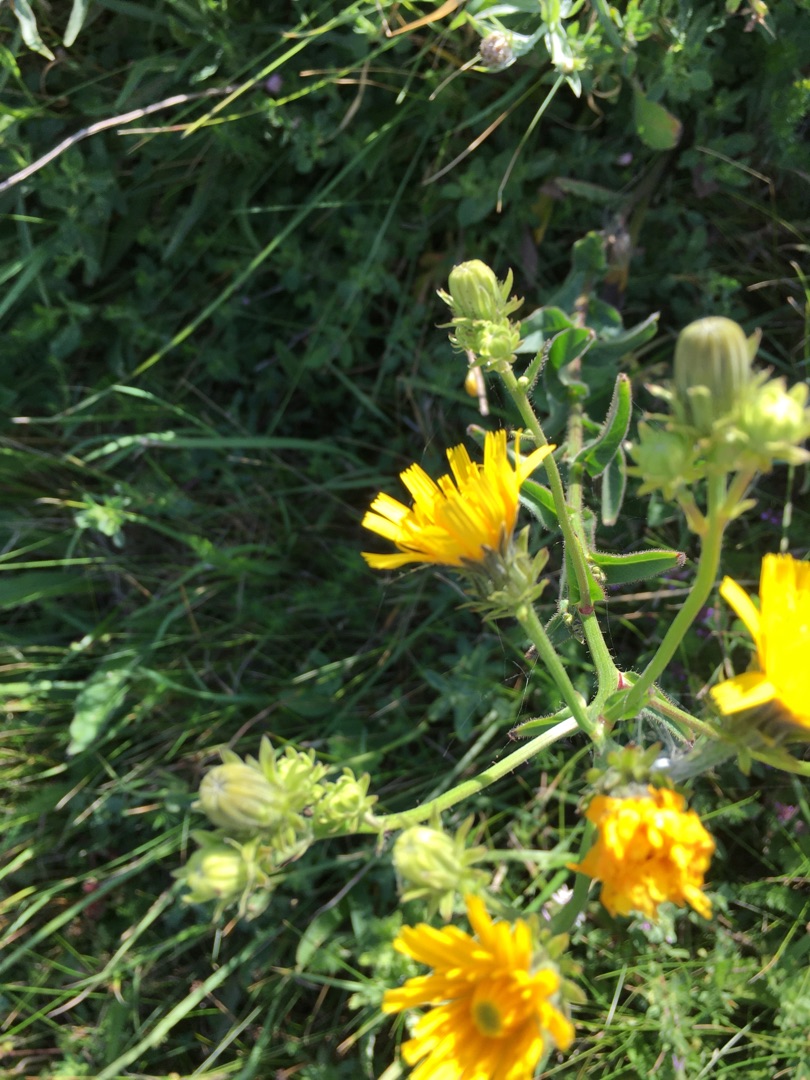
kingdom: Plantae
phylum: Tracheophyta
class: Magnoliopsida
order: Asterales
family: Asteraceae
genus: Hieracium
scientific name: Hieracium umbellatum
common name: Smalbladet høgeurt
